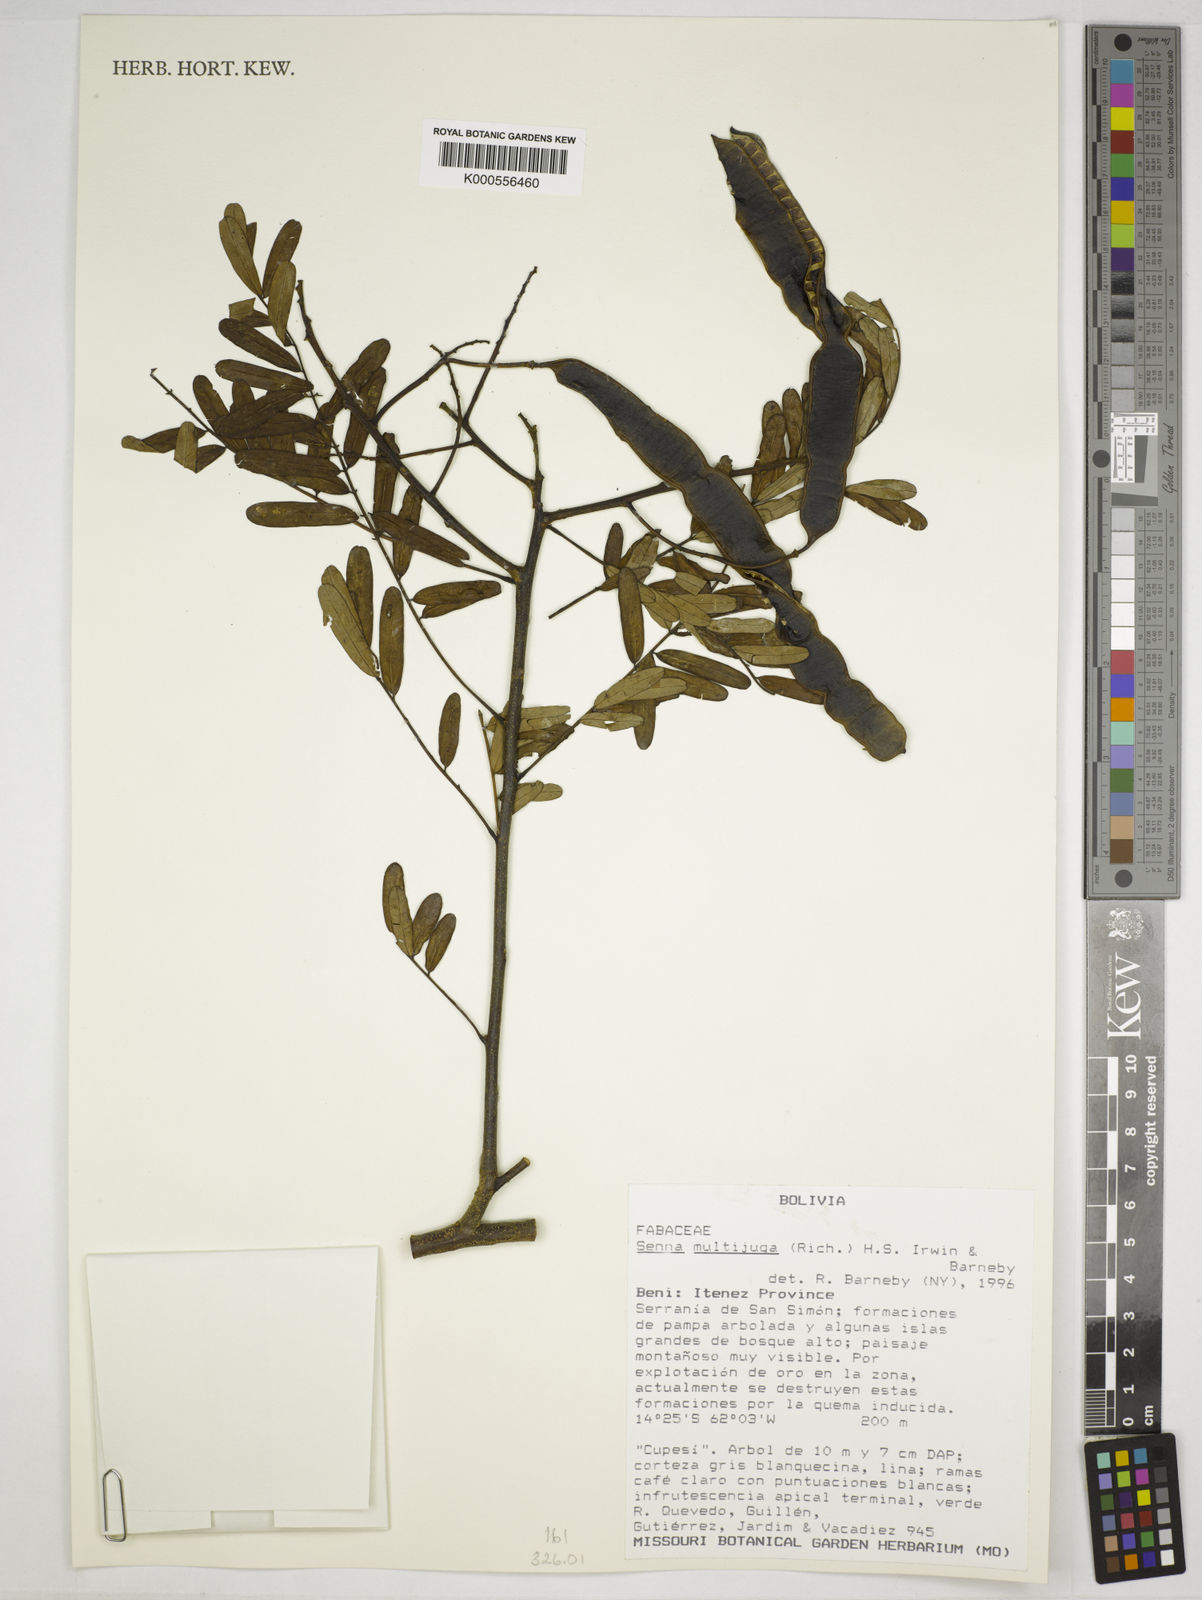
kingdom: Plantae
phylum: Tracheophyta
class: Magnoliopsida
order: Fabales
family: Fabaceae
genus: Senna
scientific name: Senna multijuga
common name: False sicklepod
